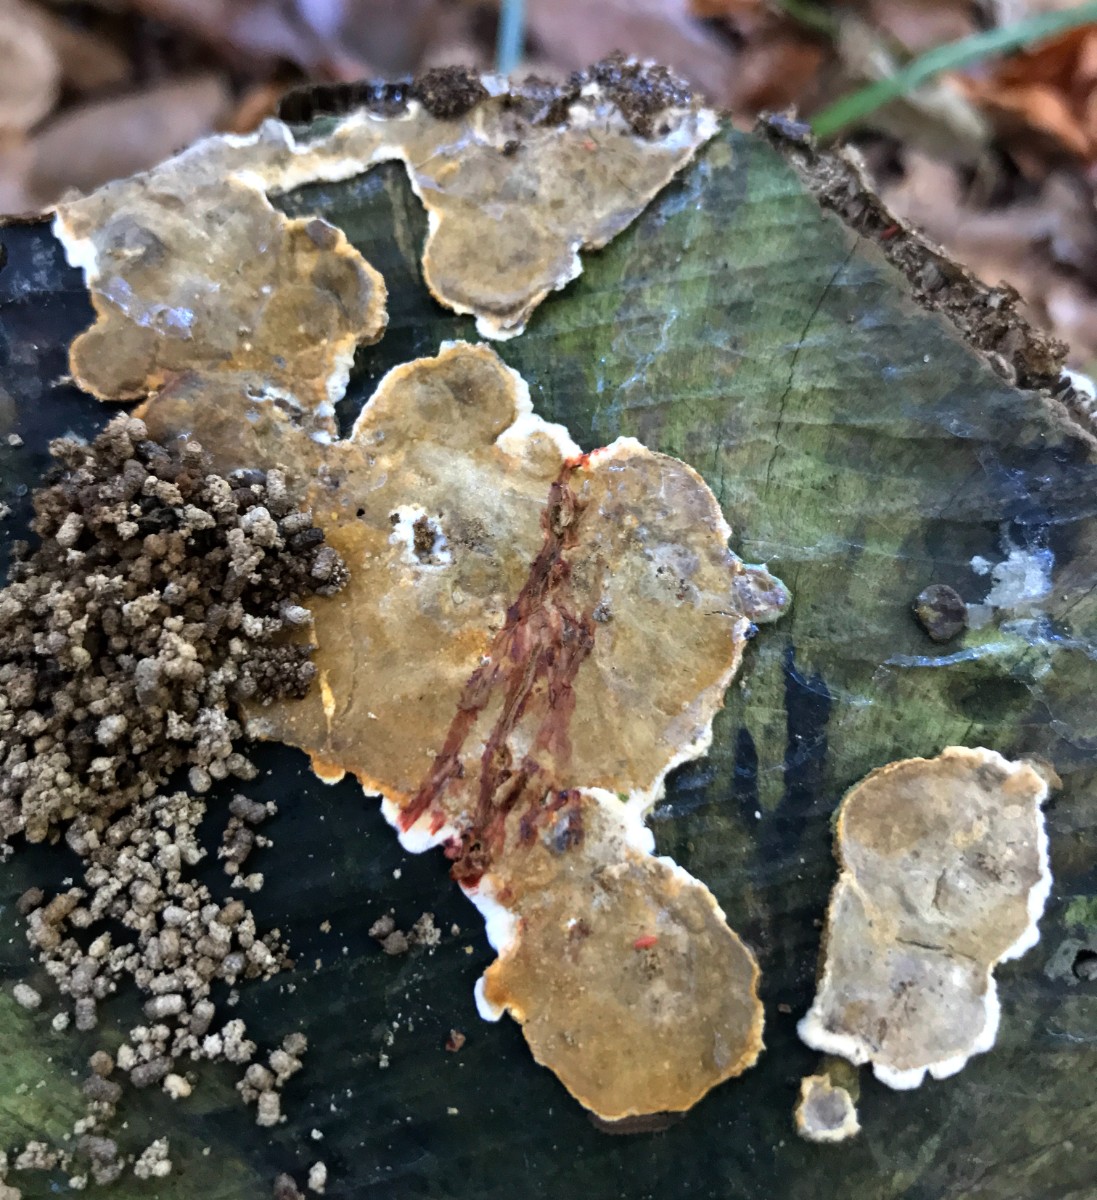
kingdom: Fungi
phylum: Basidiomycota
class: Agaricomycetes
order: Russulales
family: Stereaceae
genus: Stereum
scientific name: Stereum sanguinolentum
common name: blødende lædersvamp
